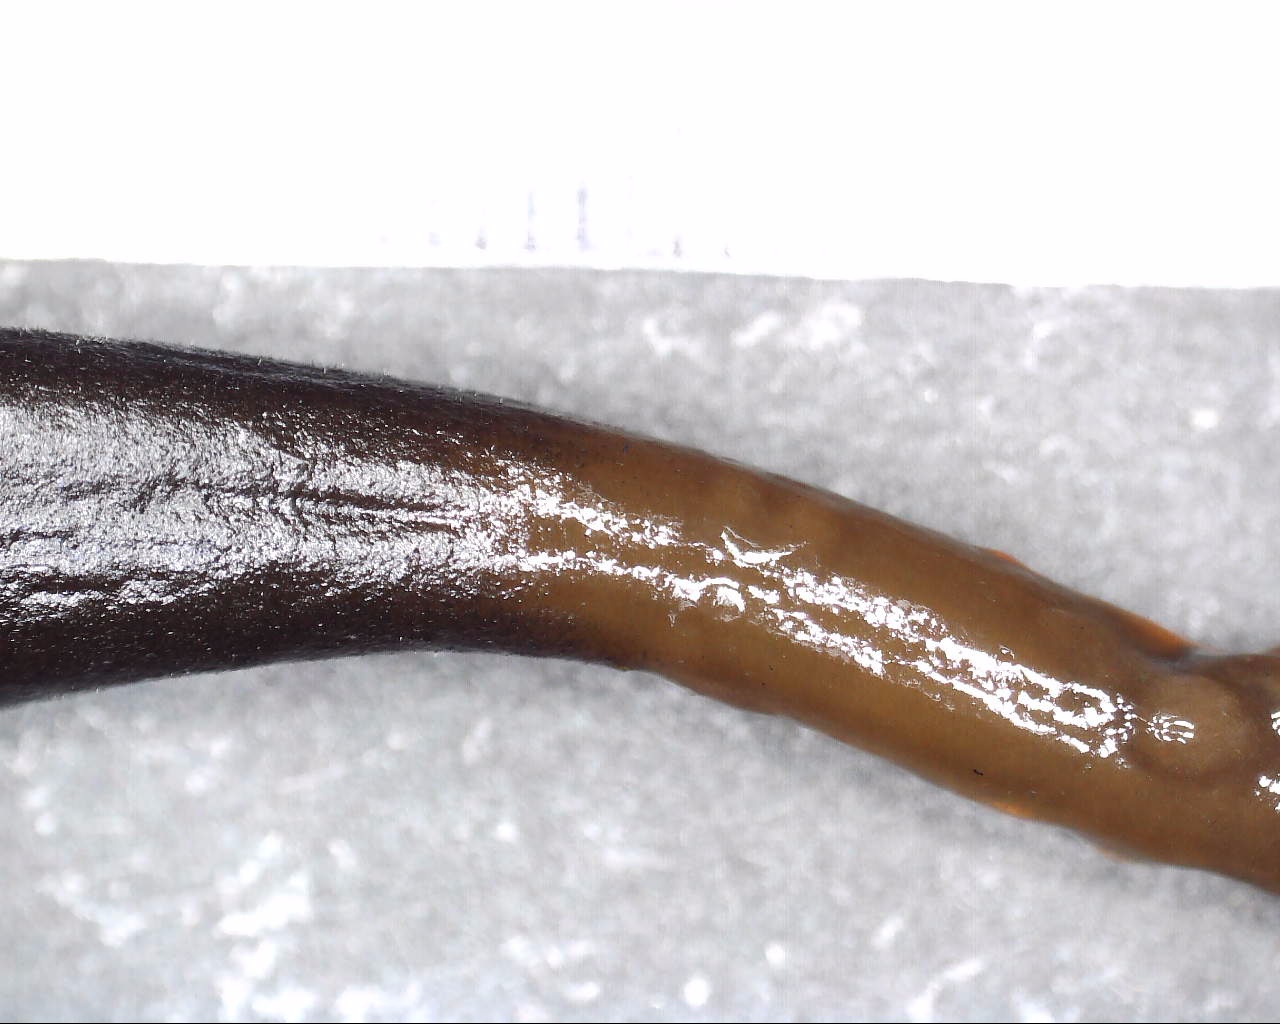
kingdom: Fungi
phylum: Ascomycota
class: Geoglossomycetes
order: Geoglossales
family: Geoglossaceae
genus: Glutinoglossum
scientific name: Glutinoglossum glutinosum
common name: slimet jordtunge
